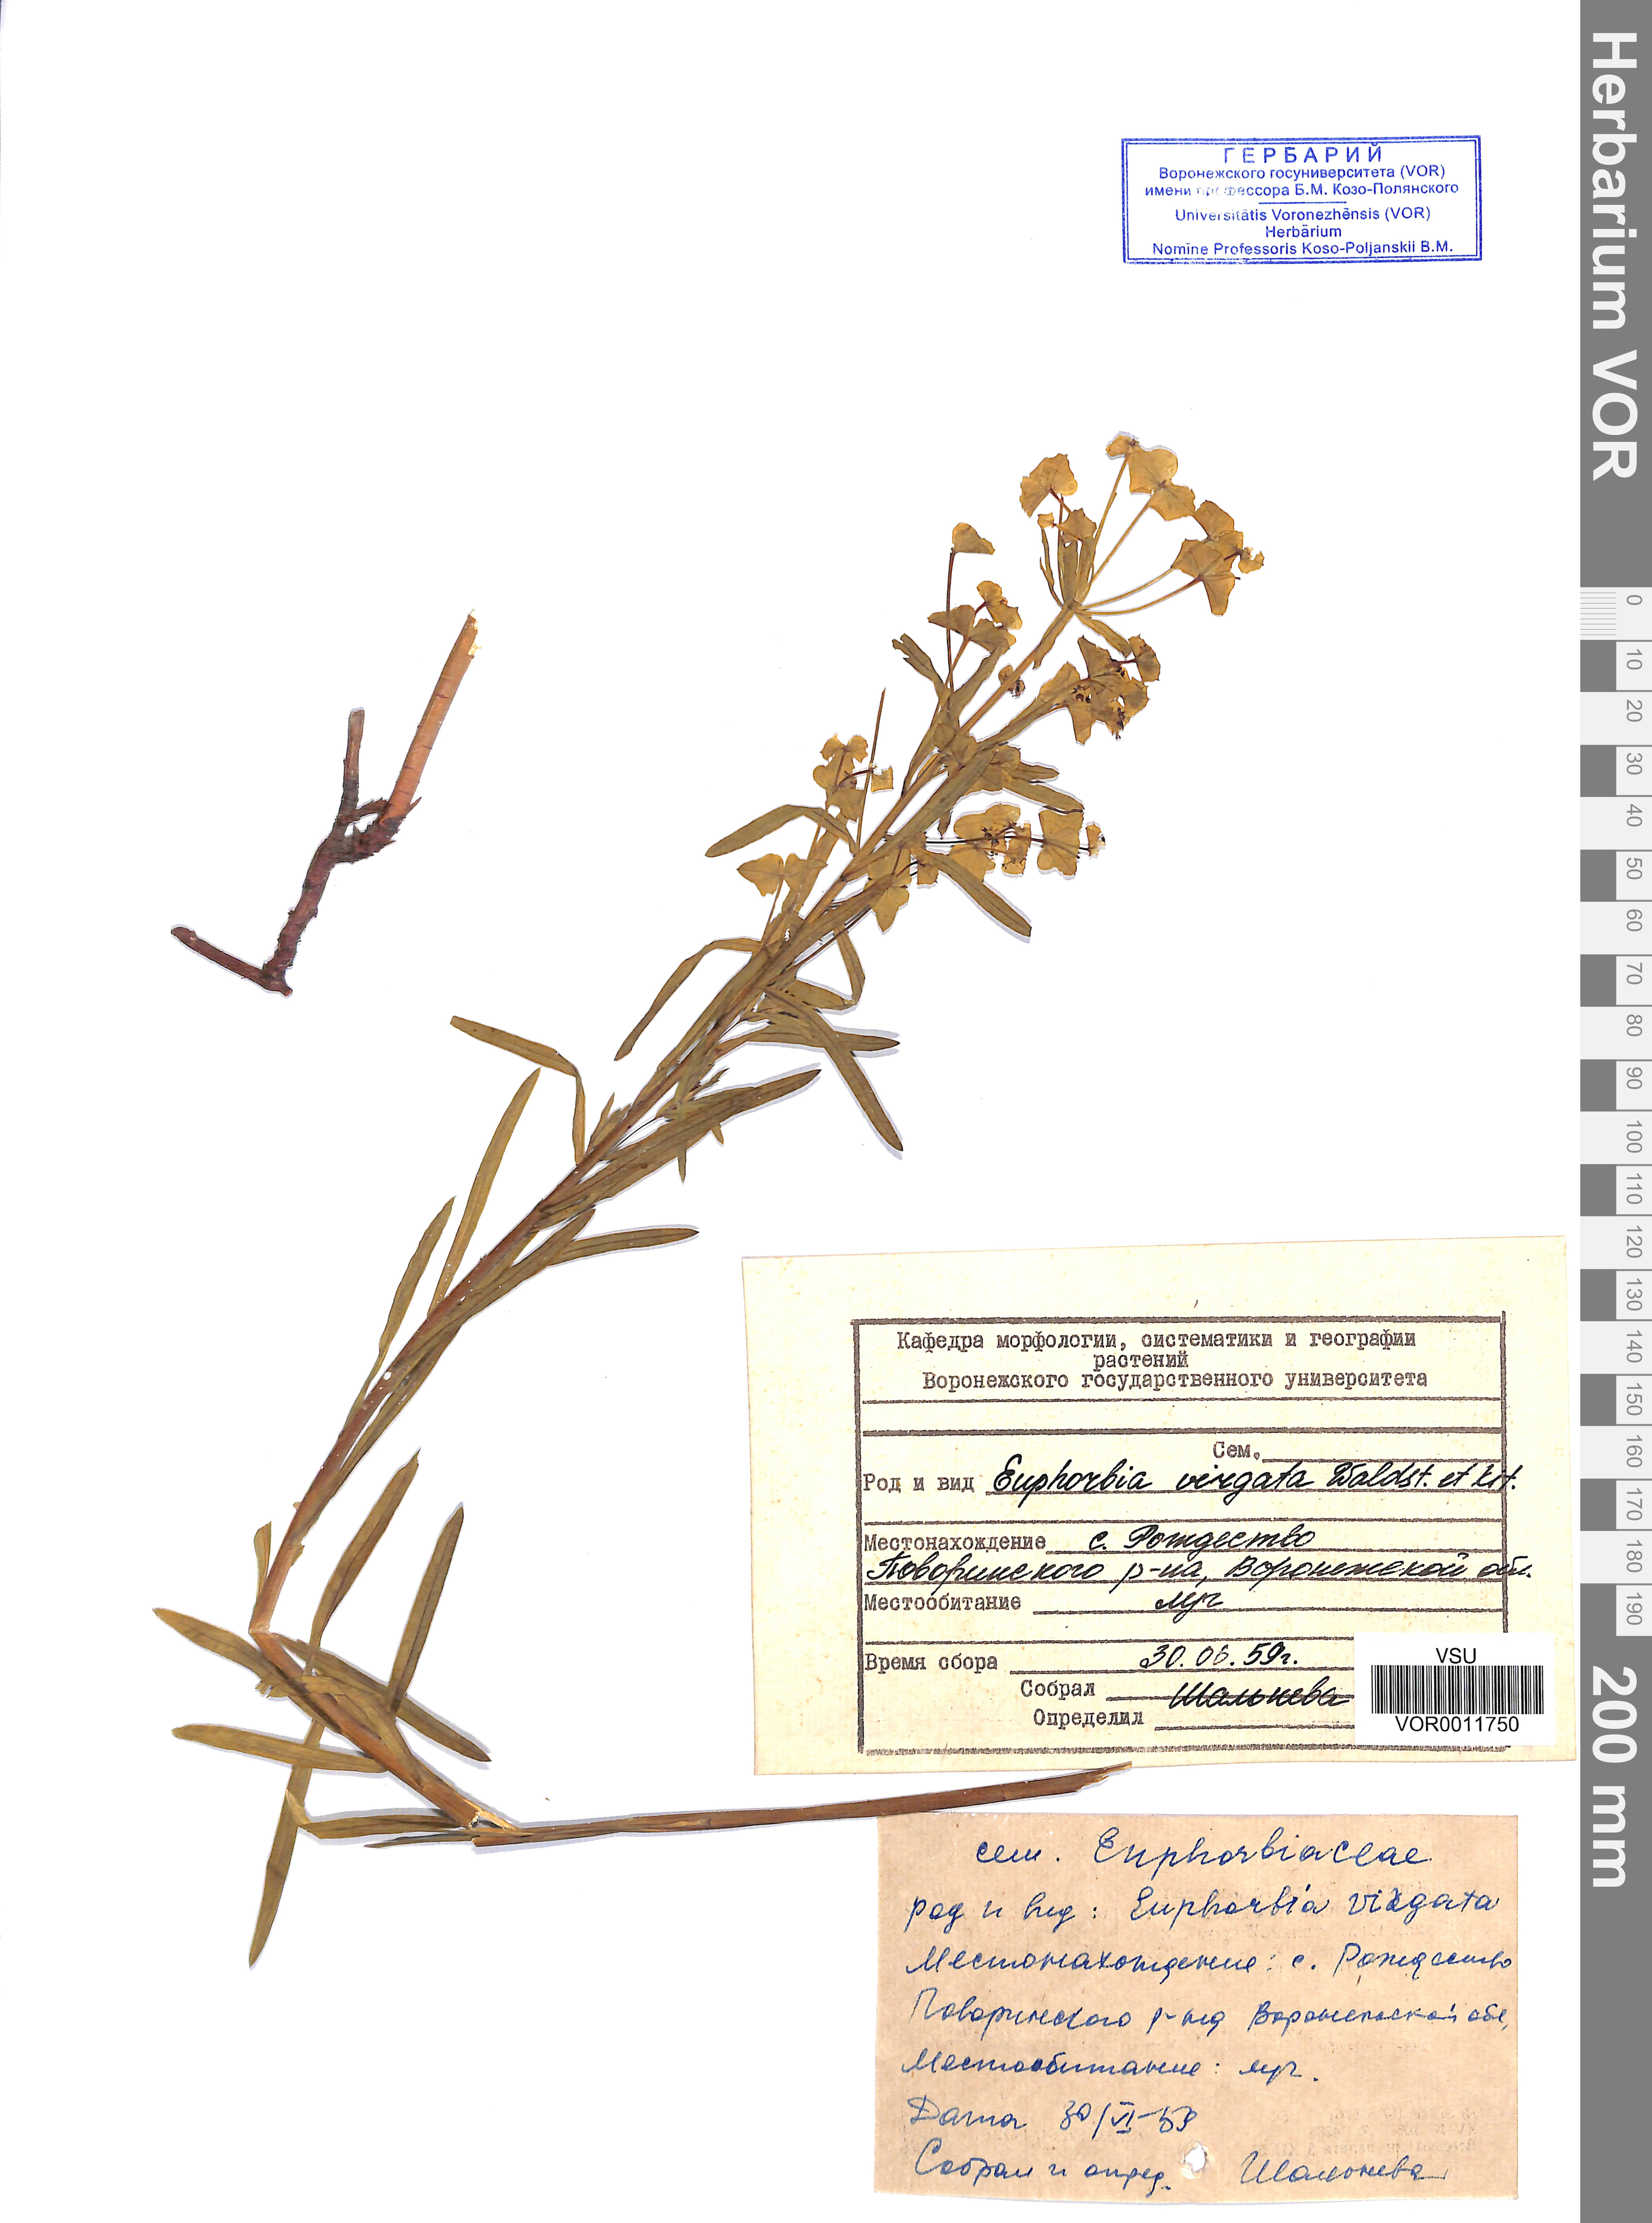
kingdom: Plantae
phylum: Tracheophyta
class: Magnoliopsida
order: Malpighiales
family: Euphorbiaceae
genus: Euphorbia
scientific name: Euphorbia virgata
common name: Leafy spurge
